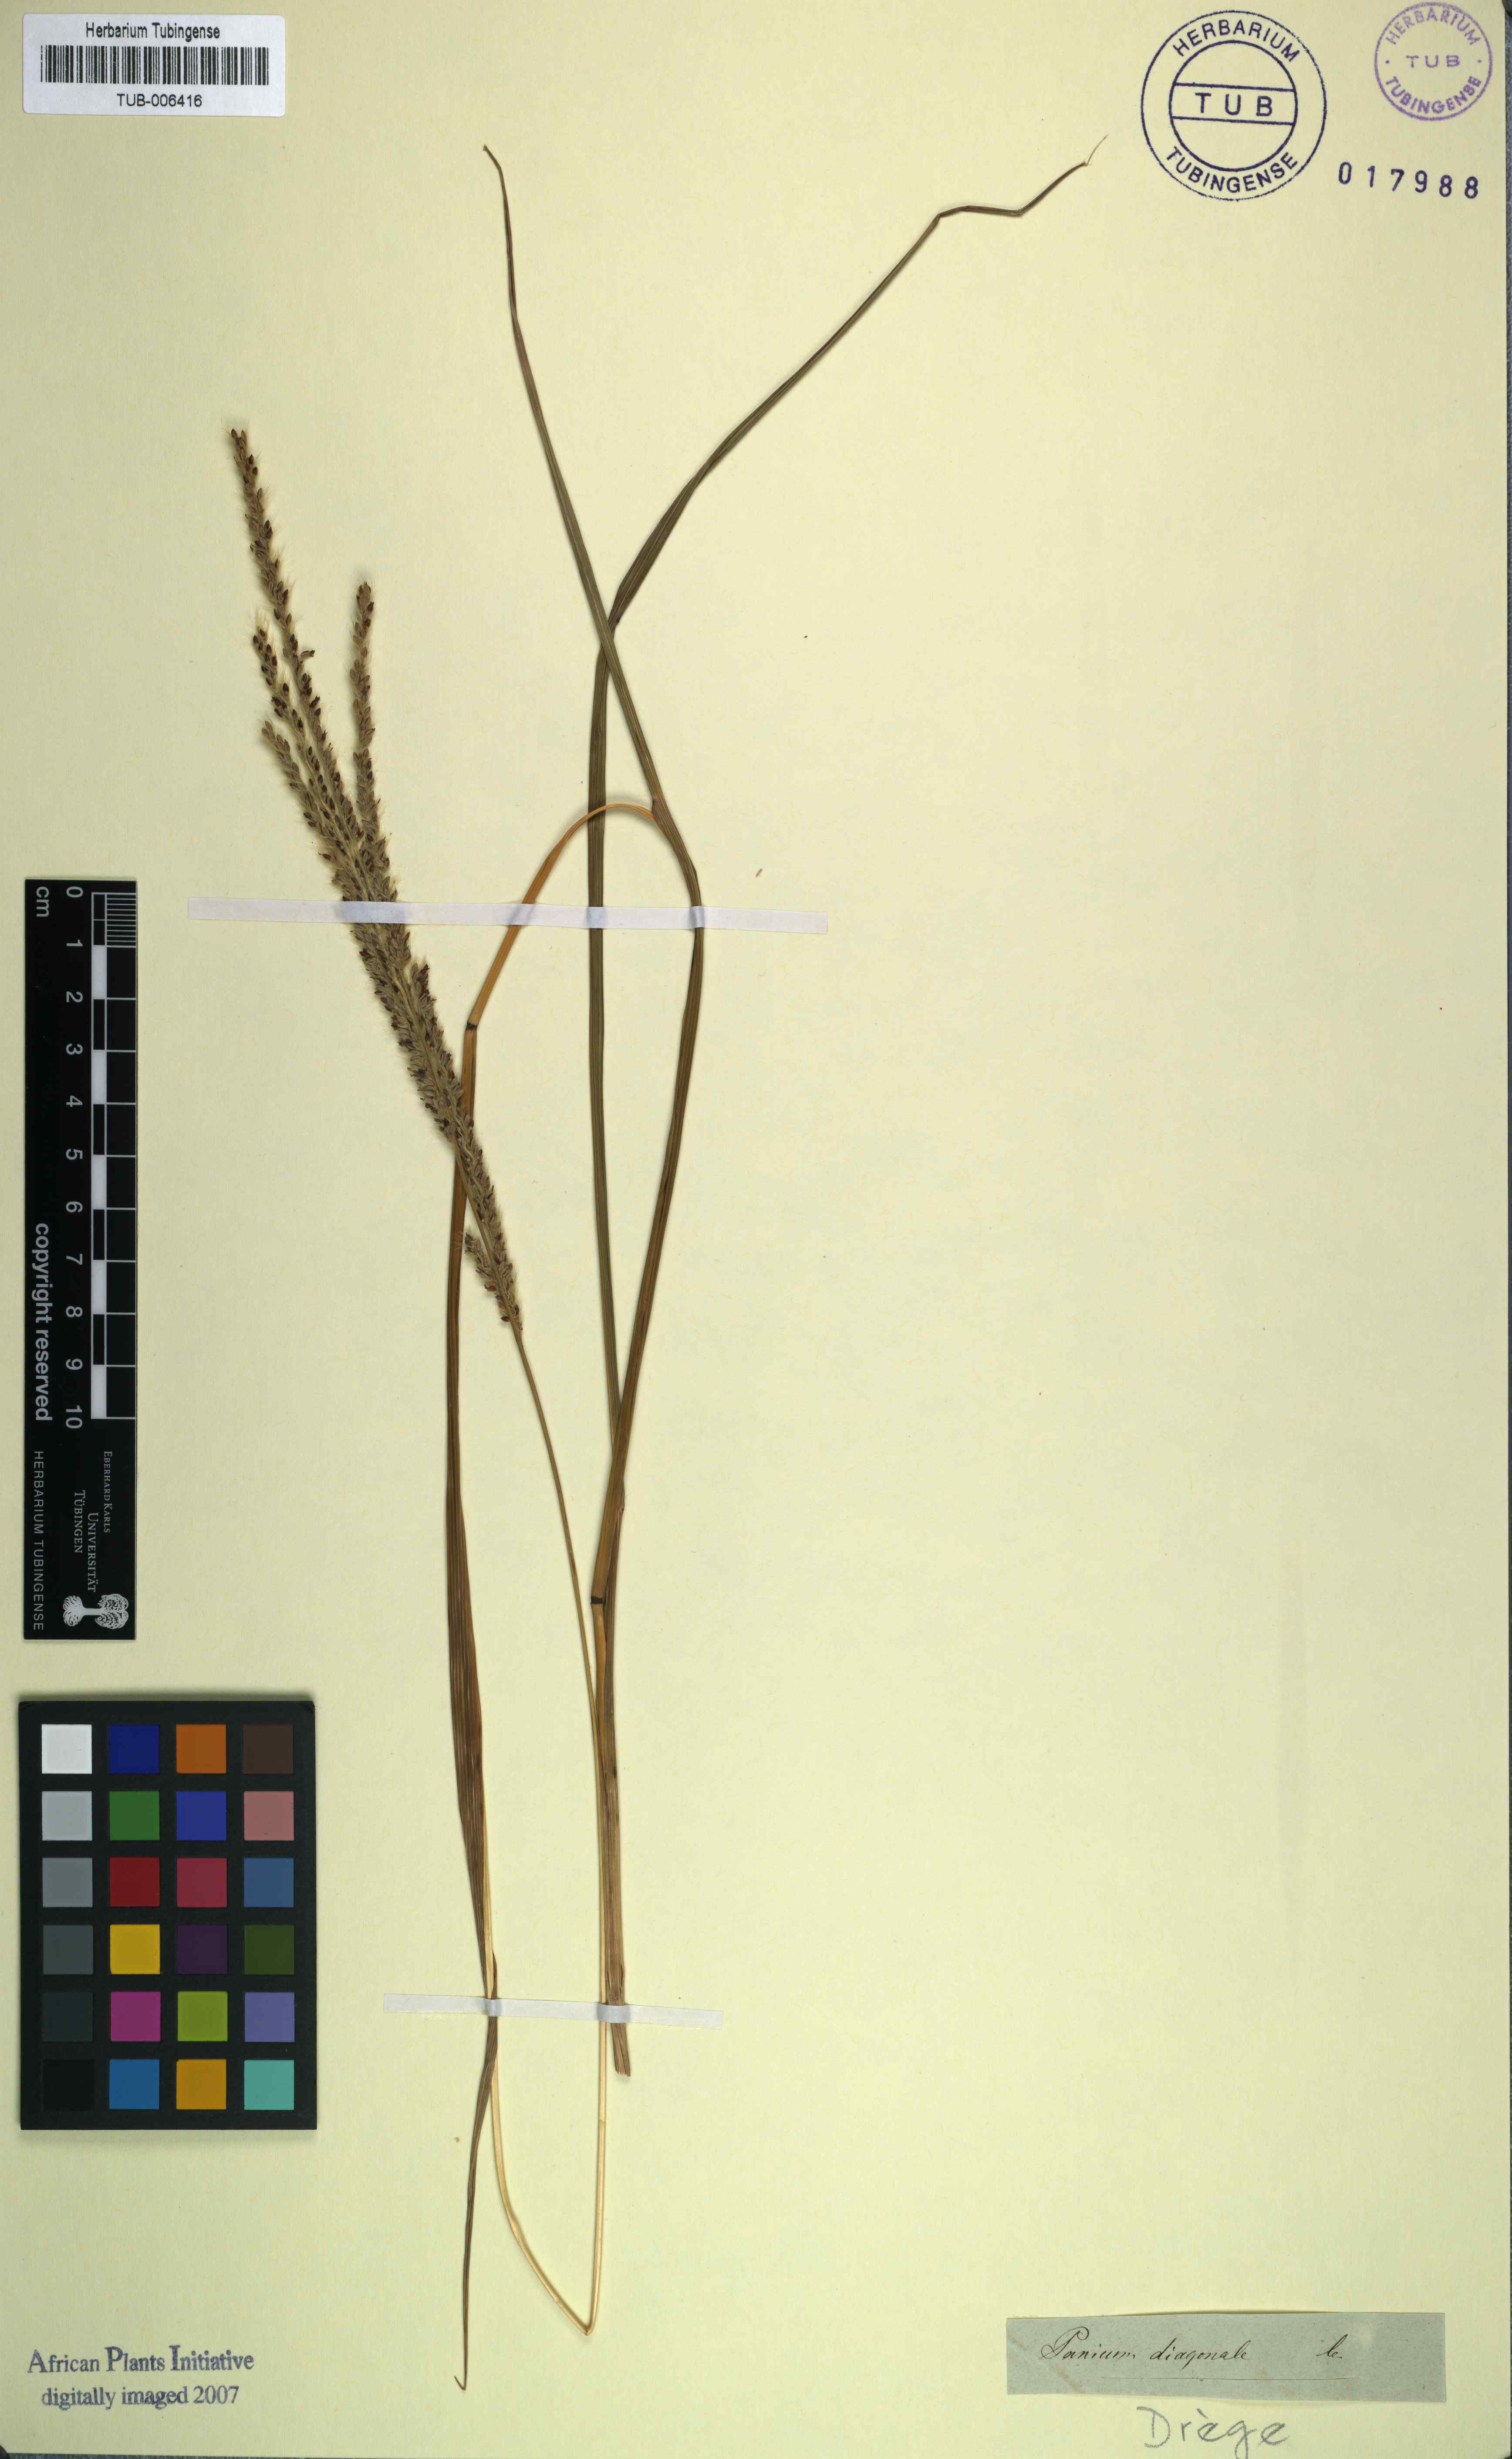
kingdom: Plantae
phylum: Tracheophyta
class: Liliopsida
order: Poales
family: Poaceae
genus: Digitaria
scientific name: Digitaria diagonalis
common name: Brown-seed finger grass
